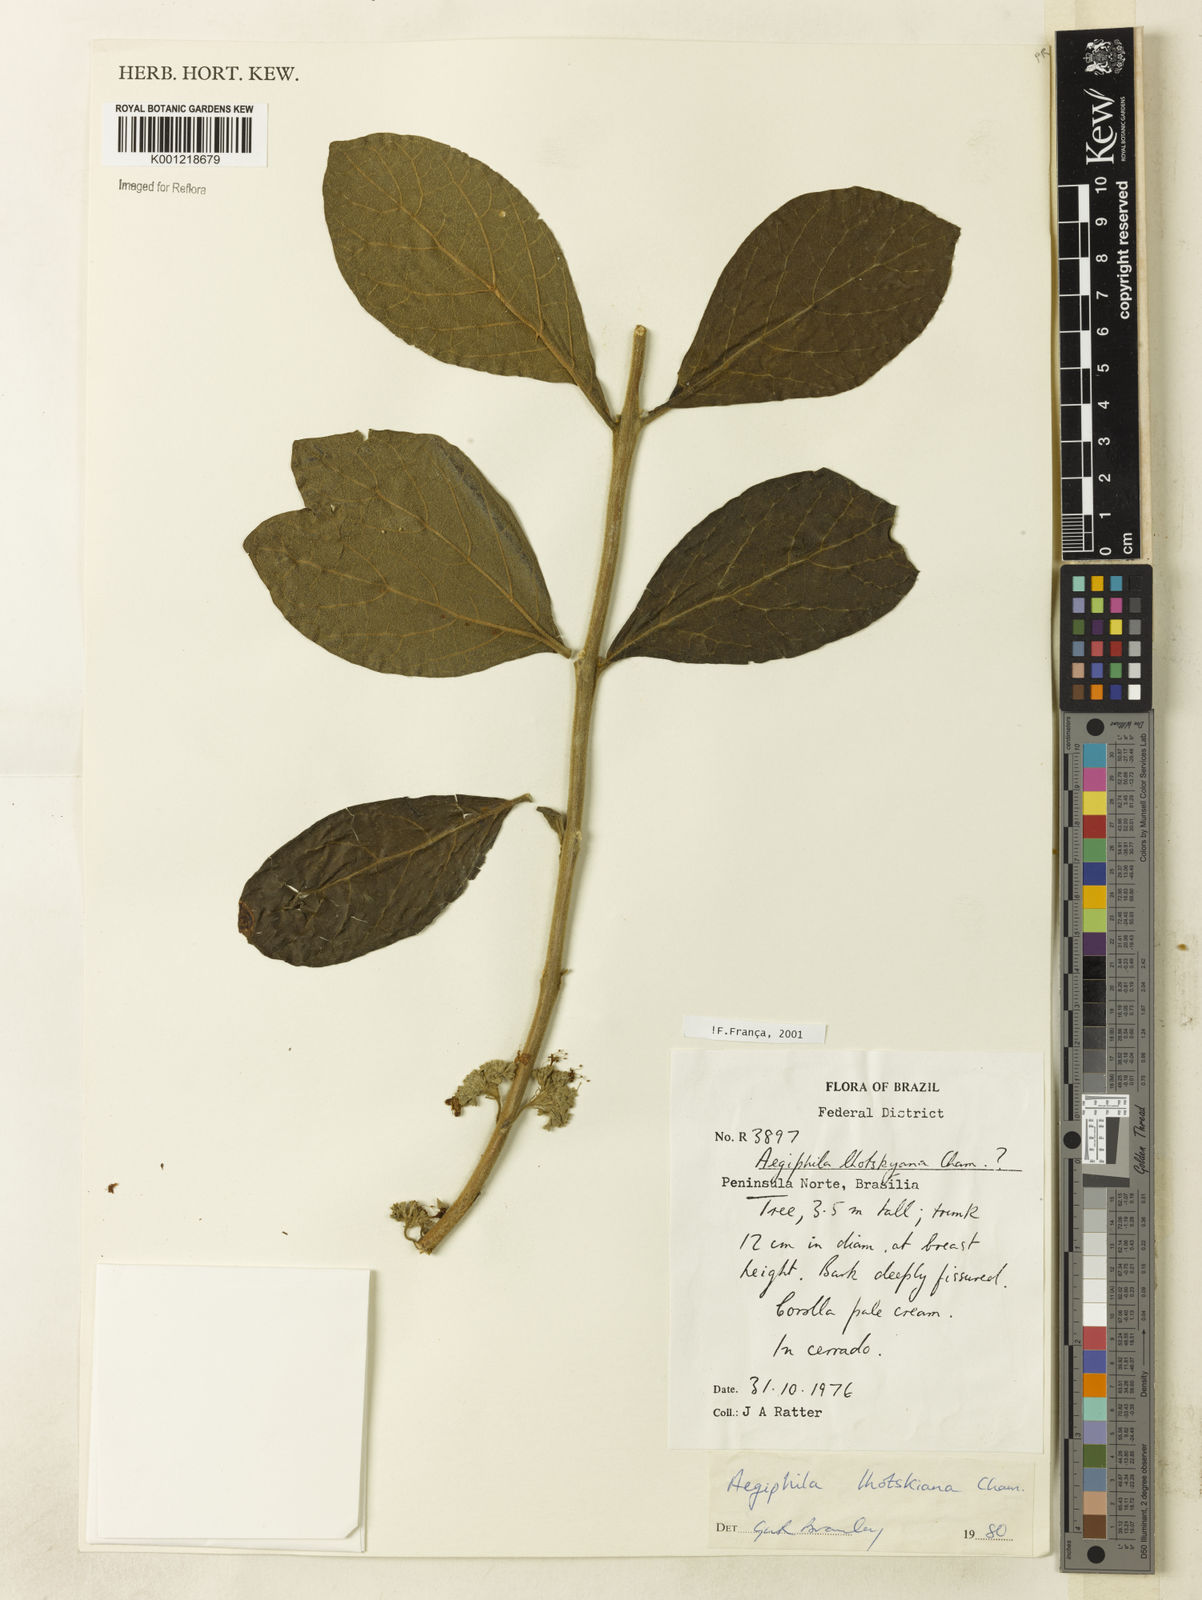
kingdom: Plantae
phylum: Tracheophyta
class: Magnoliopsida
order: Lamiales
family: Lamiaceae
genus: Aegiphila
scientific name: Aegiphila verticillata
